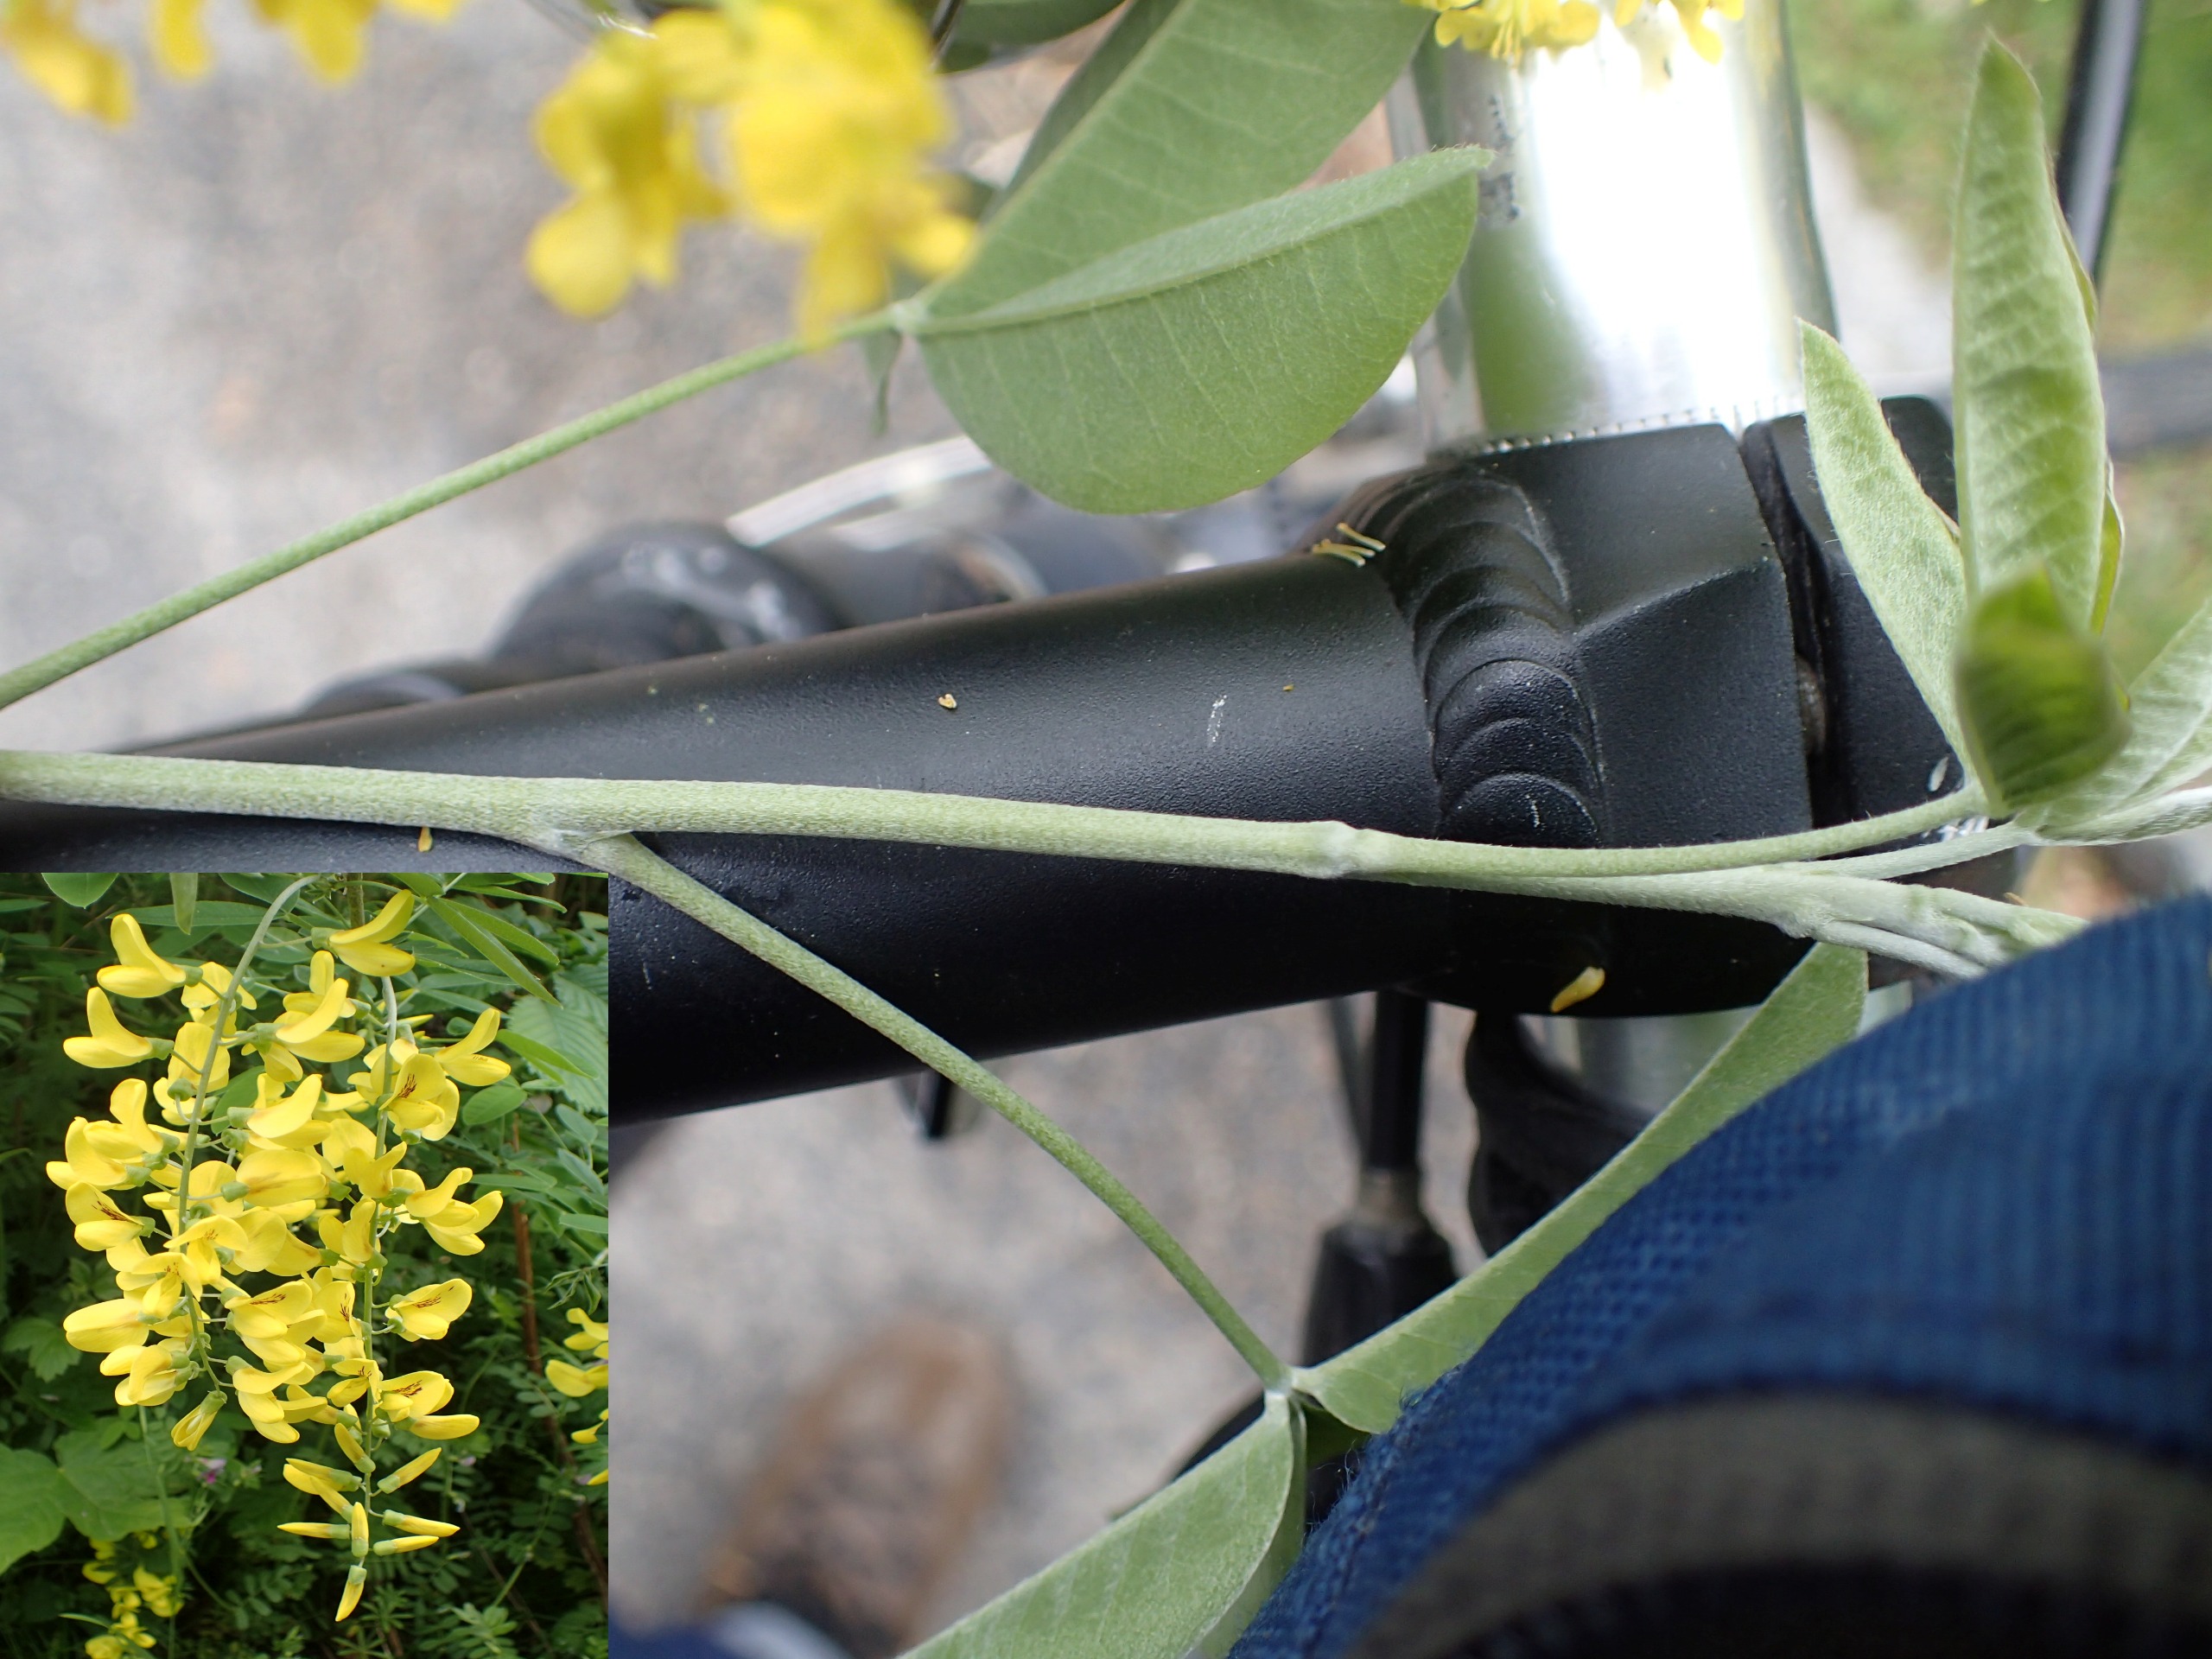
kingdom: Plantae
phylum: Tracheophyta
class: Magnoliopsida
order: Fabales
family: Fabaceae
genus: Laburnum
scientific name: Laburnum anagyroides
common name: Guldregn
